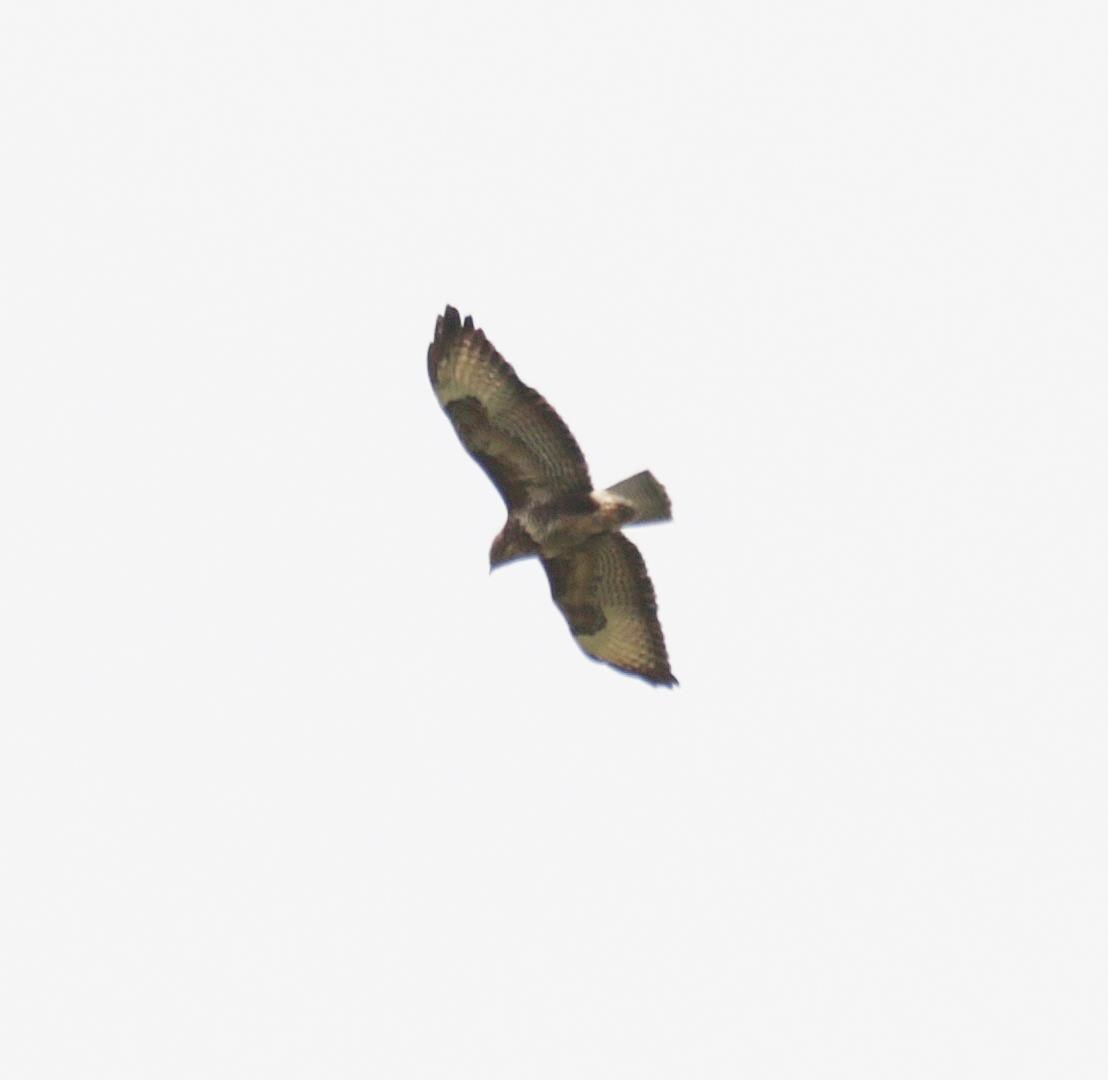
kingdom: Animalia
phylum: Chordata
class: Aves
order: Accipitriformes
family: Accipitridae
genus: Buteo
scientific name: Buteo buteo
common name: Musvåge
